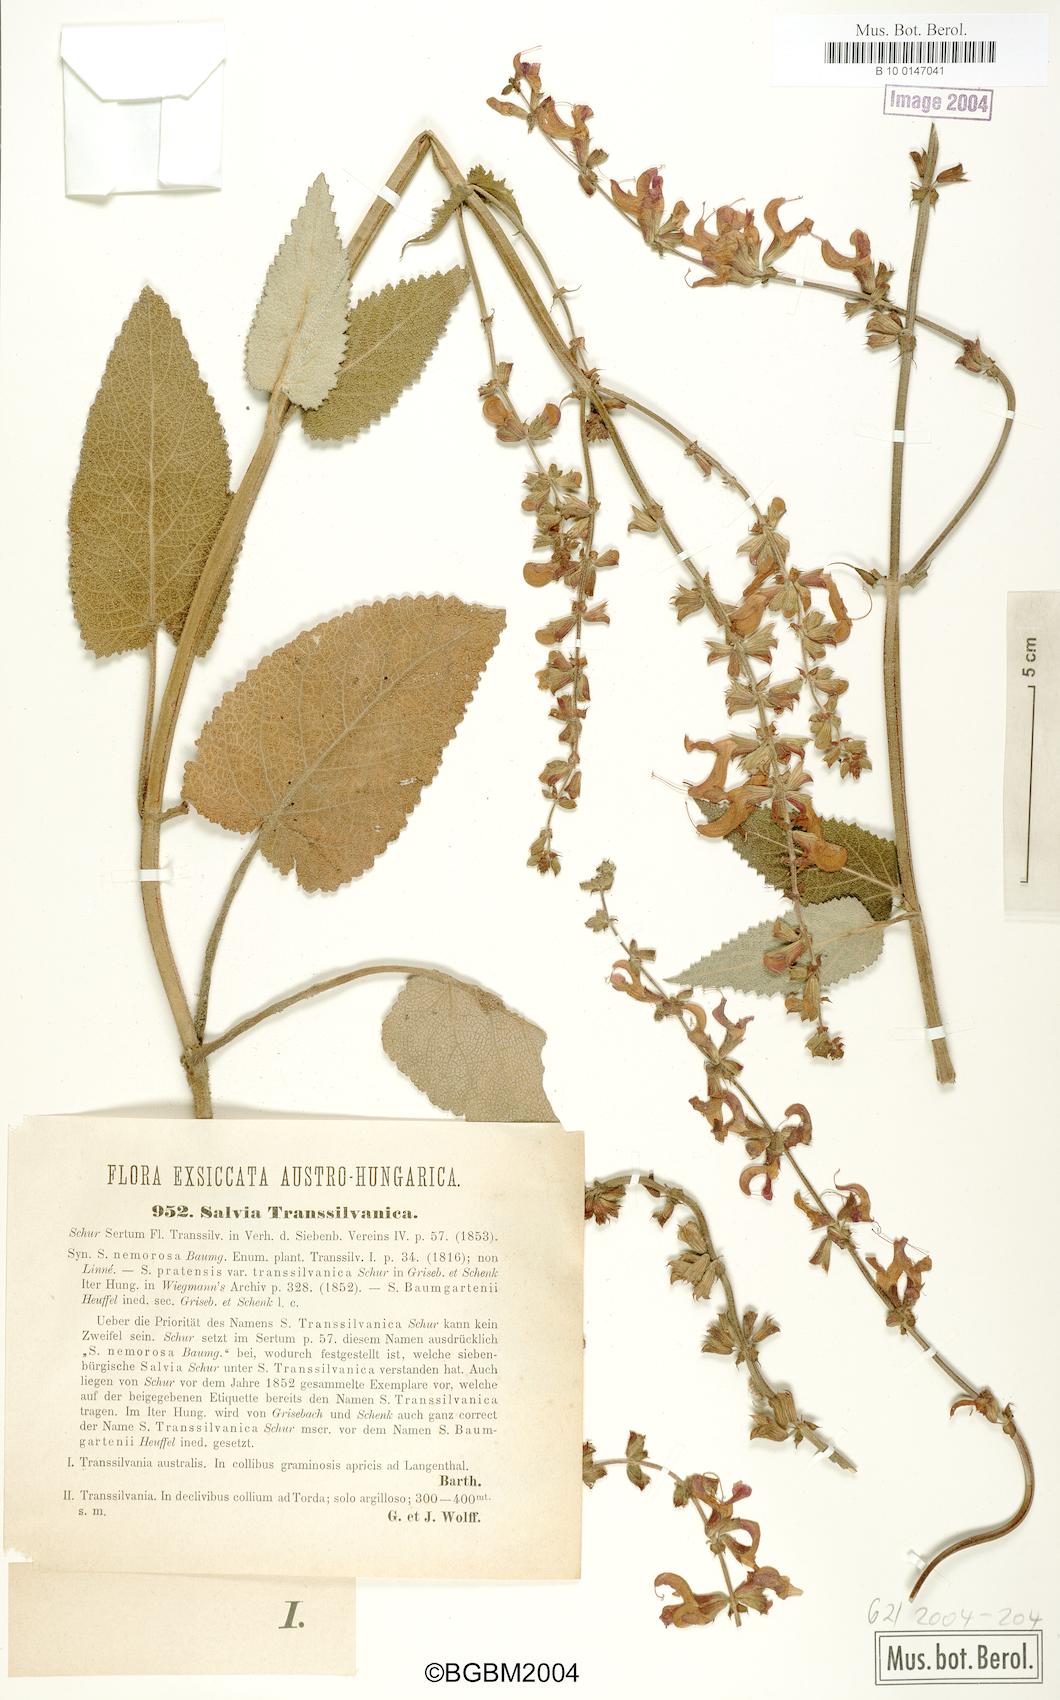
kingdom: Plantae
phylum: Tracheophyta
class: Magnoliopsida
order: Lamiales
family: Lamiaceae
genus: Salvia
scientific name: Salvia transsylvanica
